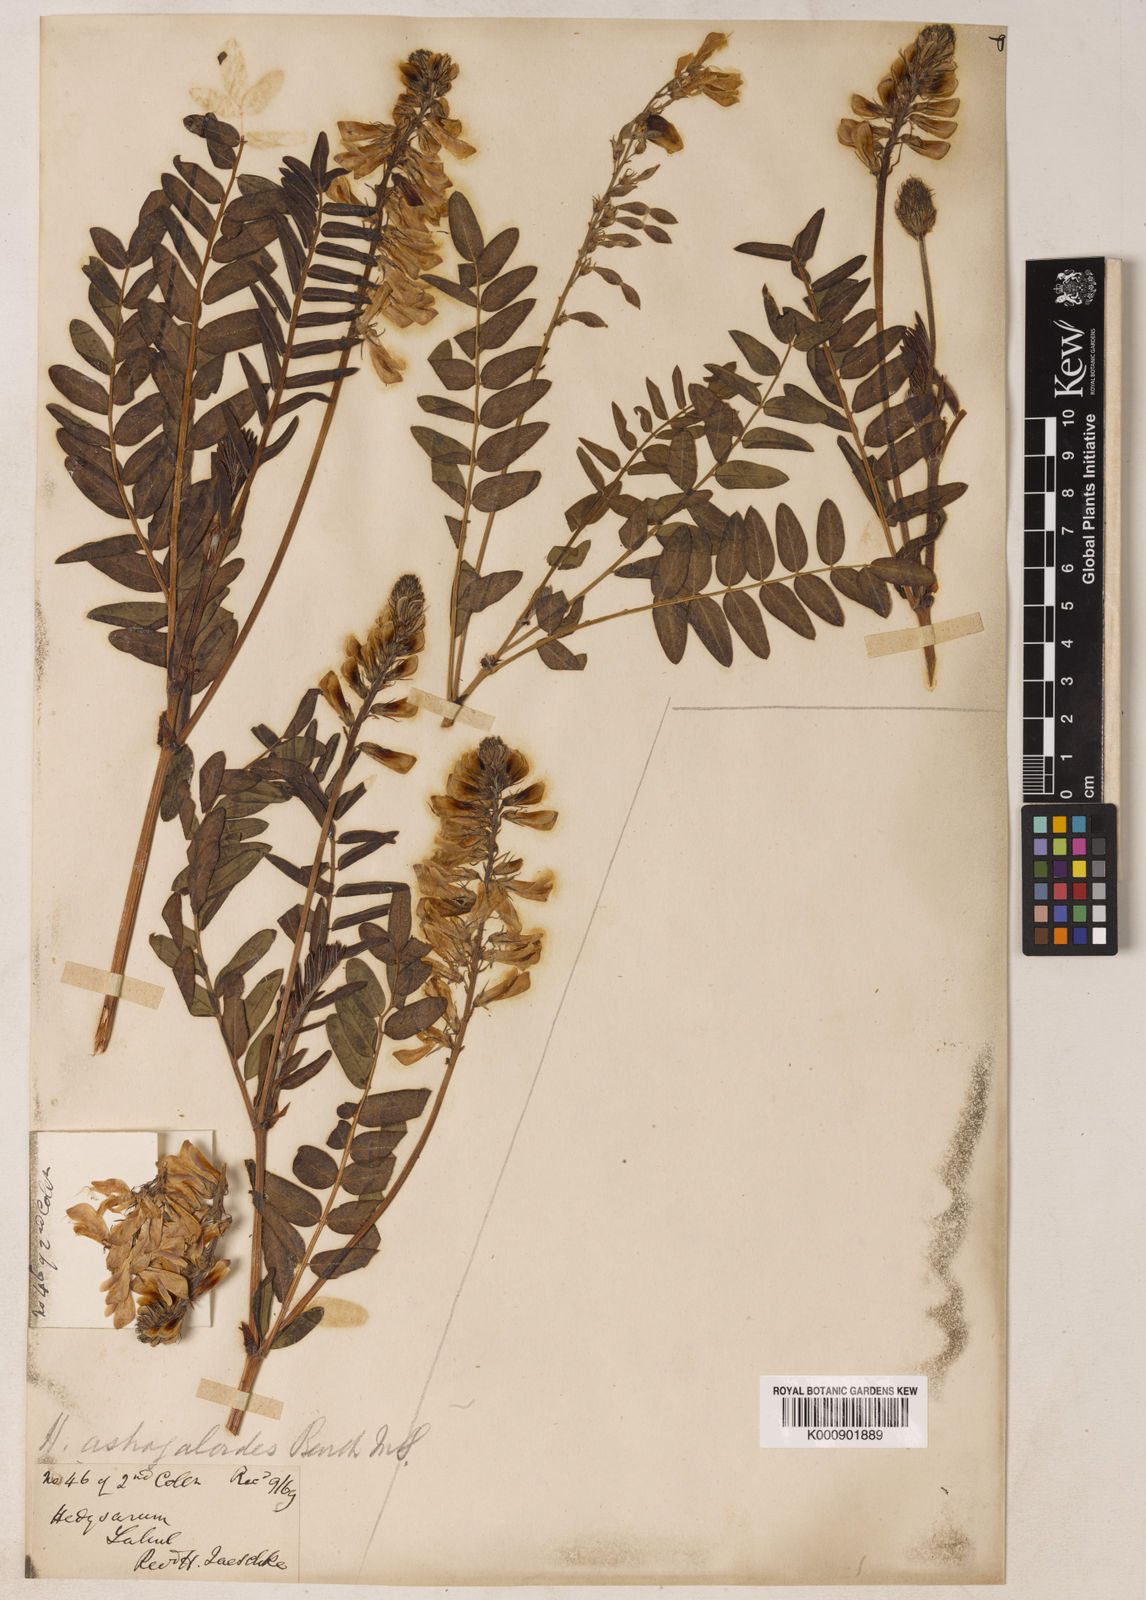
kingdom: Plantae
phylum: Tracheophyta
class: Magnoliopsida
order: Fabales
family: Fabaceae
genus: Hedysarum
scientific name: Hedysarum astragaloides
